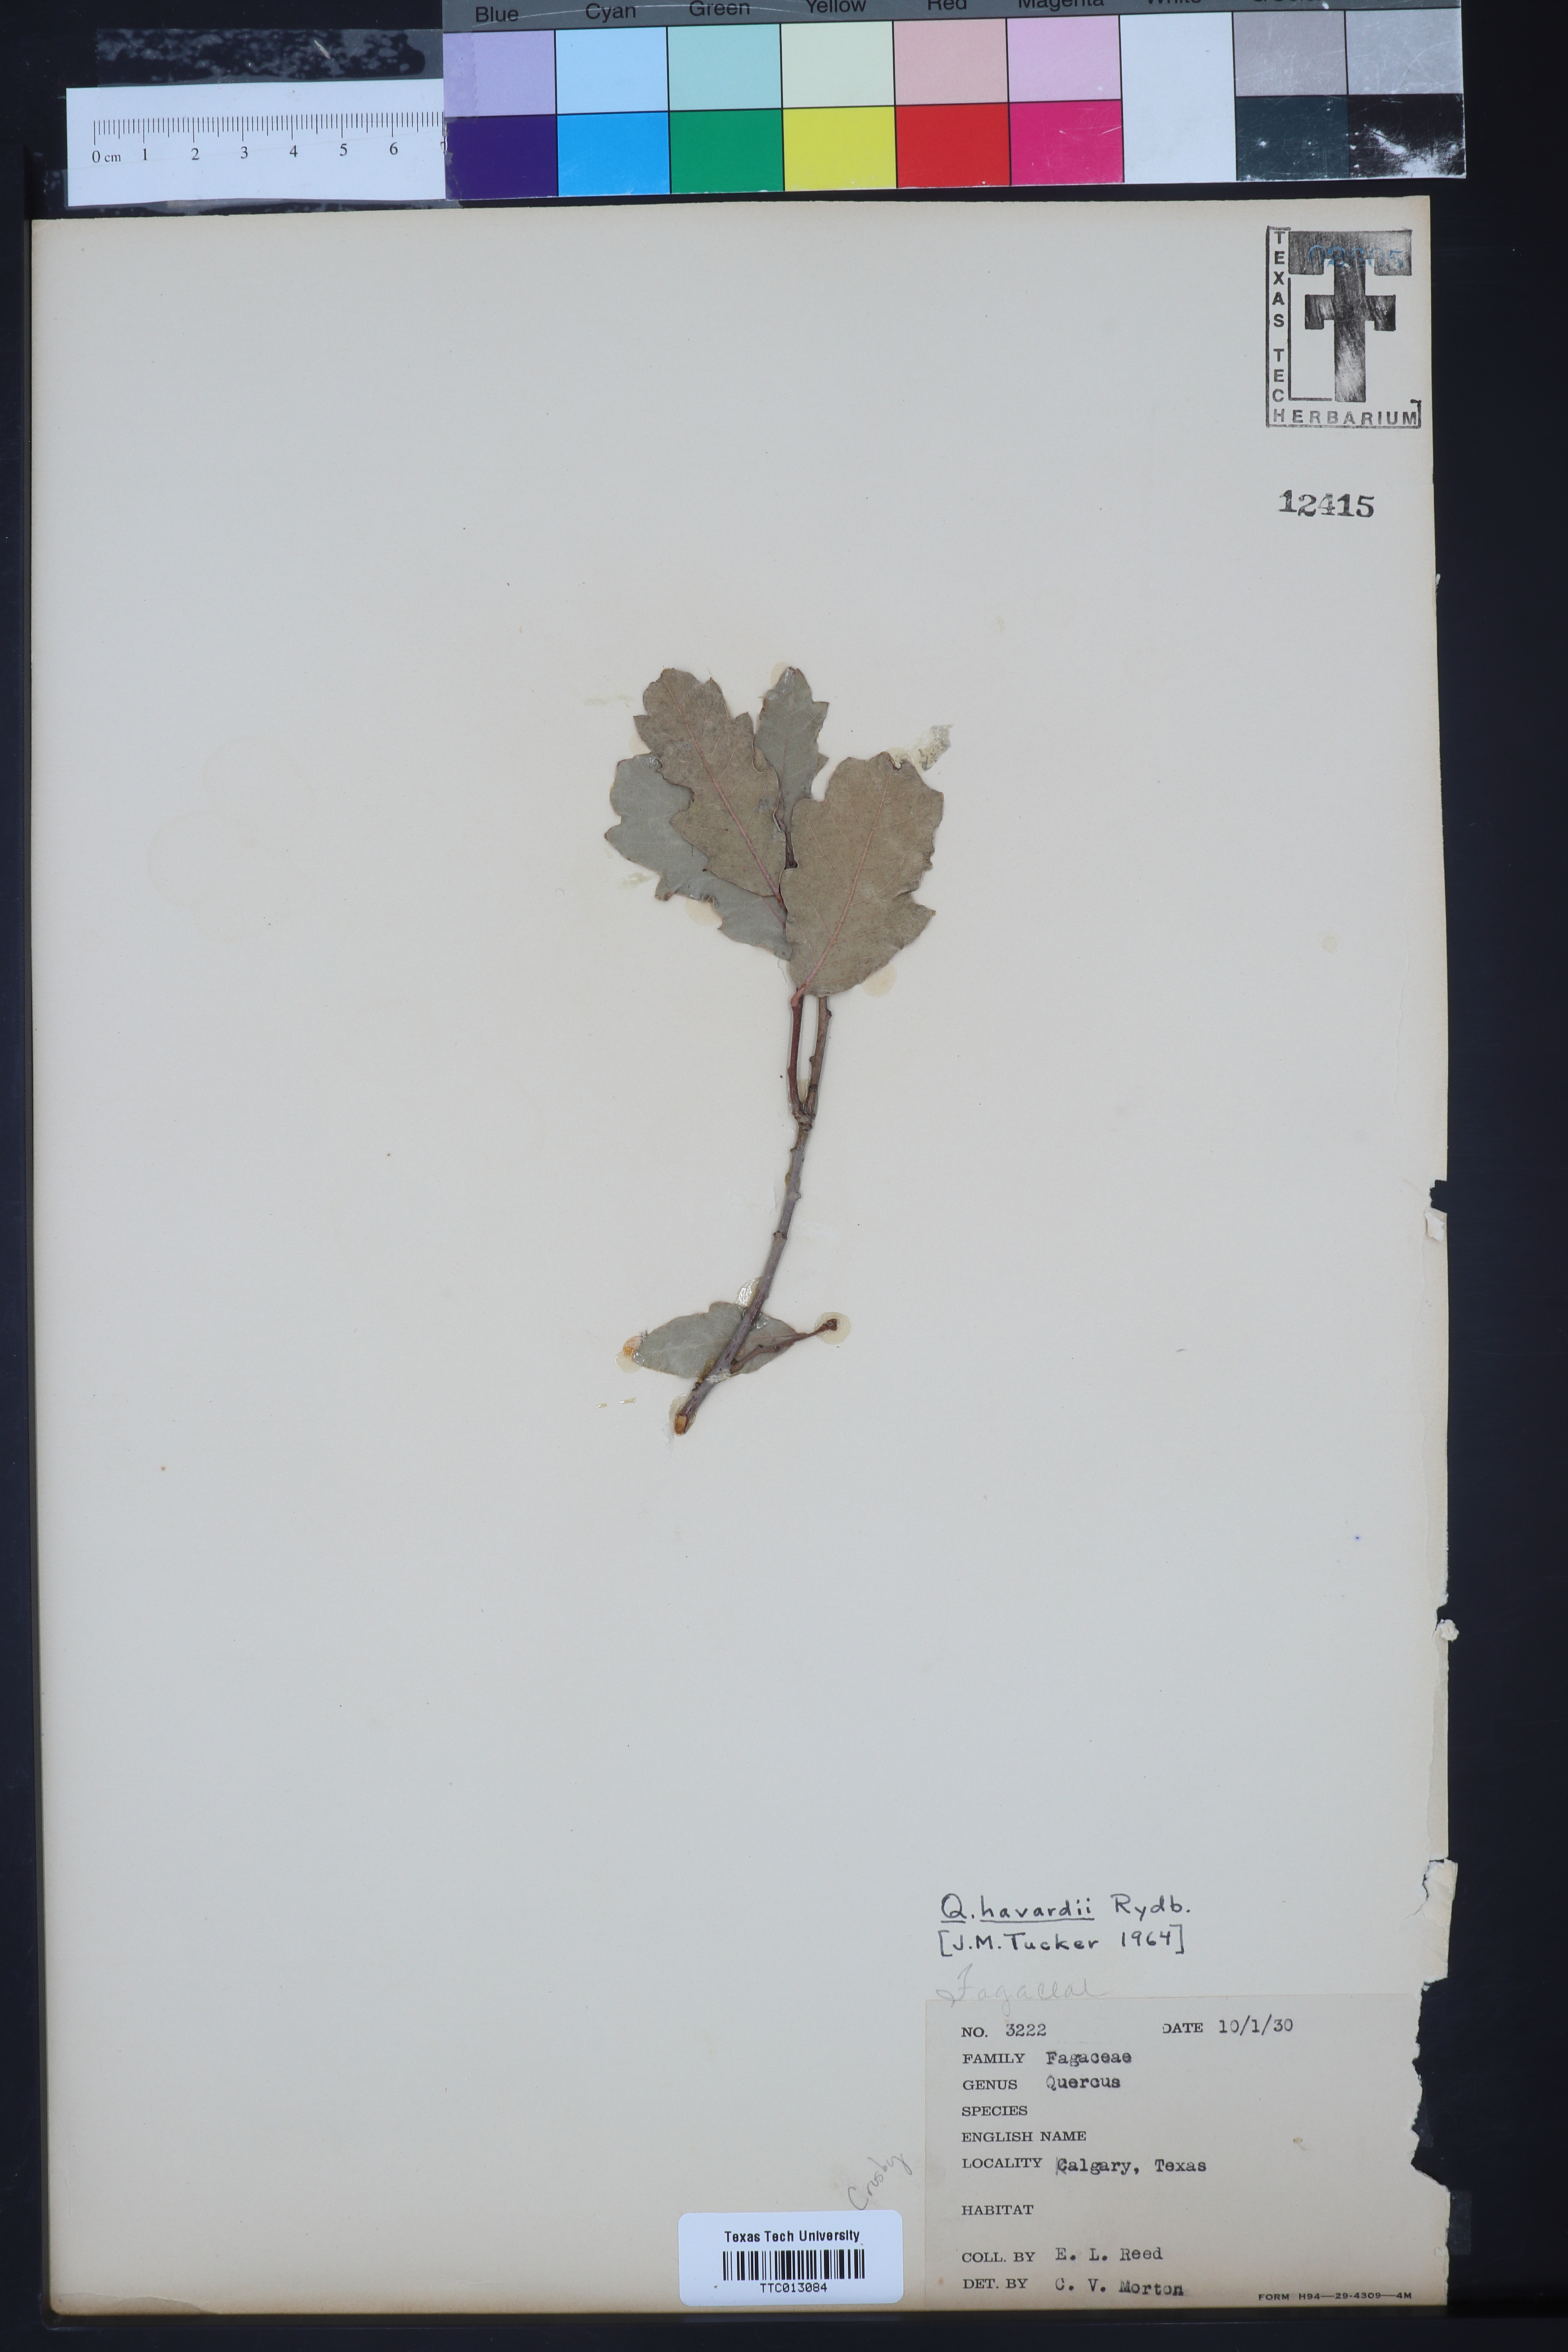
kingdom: Plantae
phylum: Tracheophyta
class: Magnoliopsida
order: Fagales
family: Fagaceae
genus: Quercus
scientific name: Quercus havardii
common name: Shinnery oak
